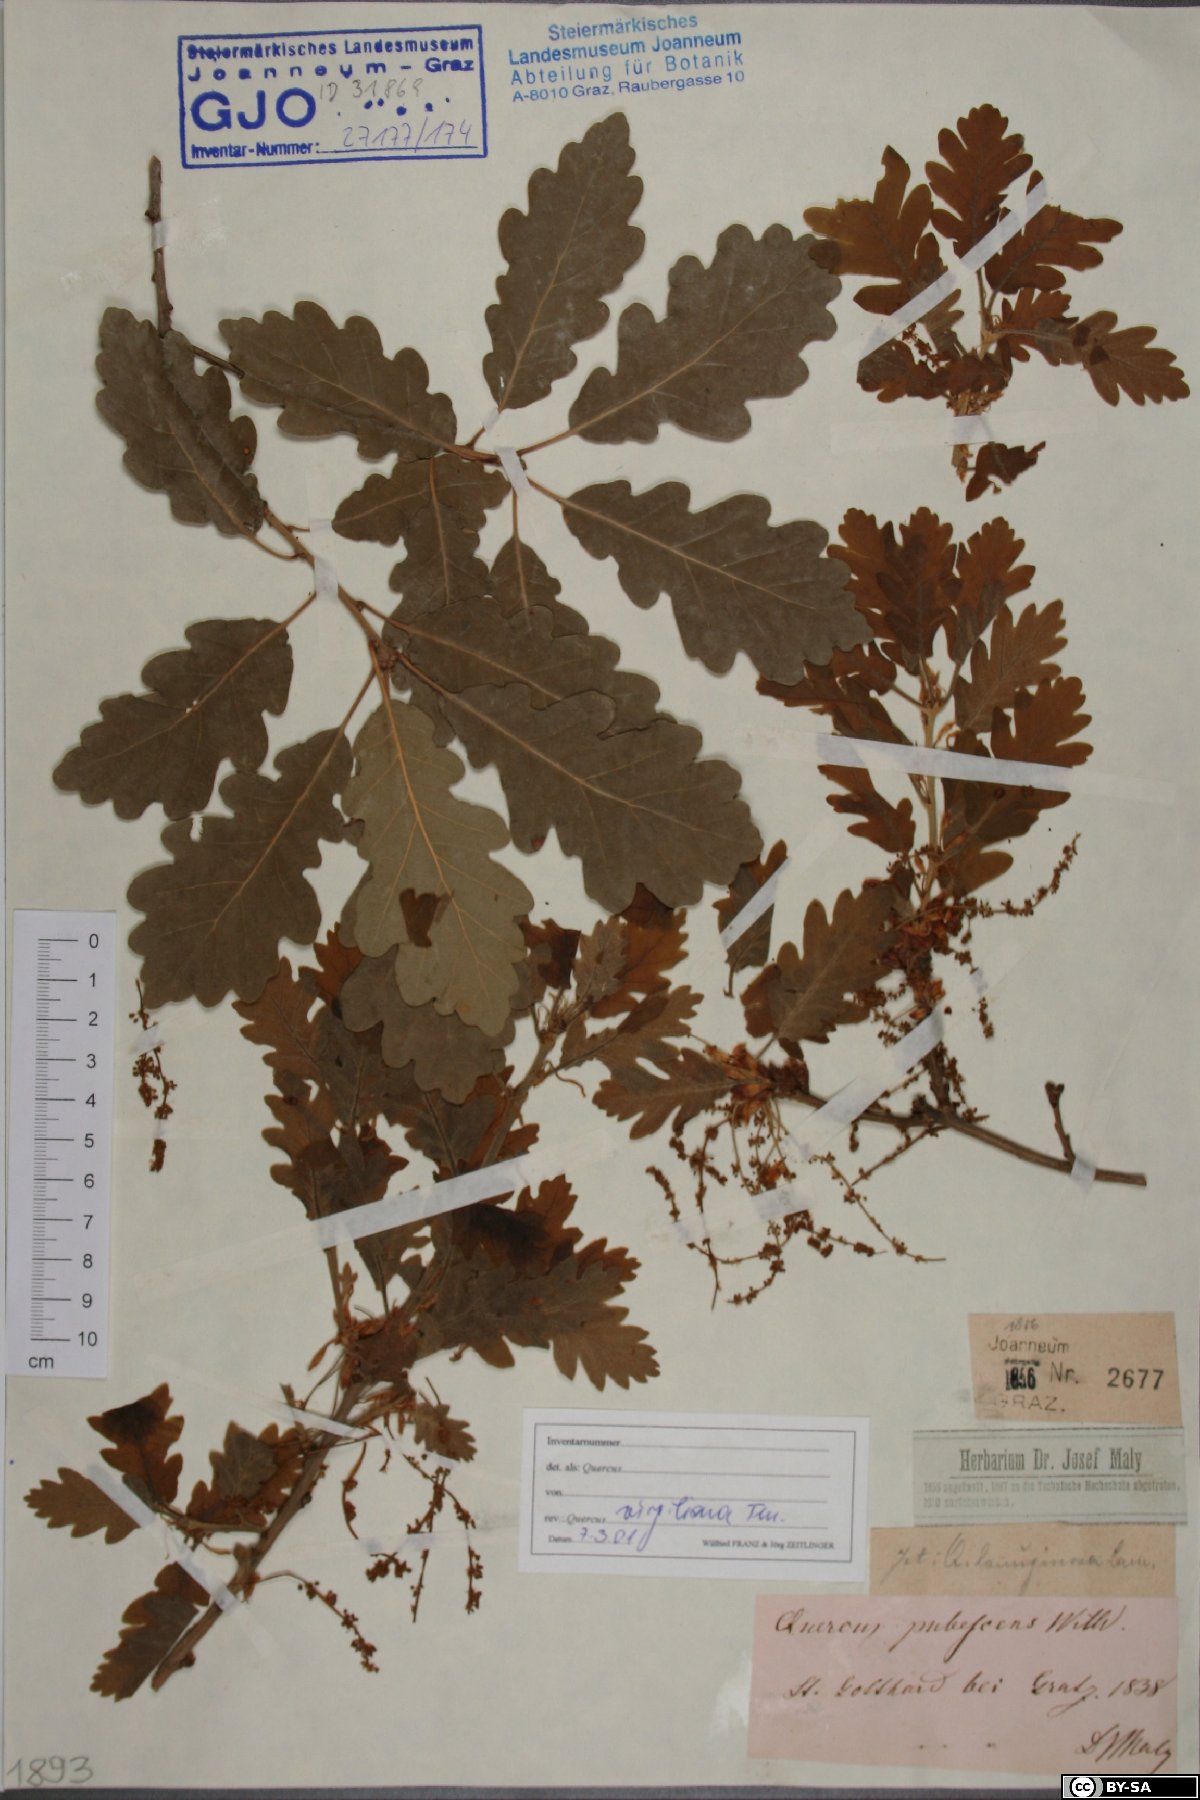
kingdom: Plantae
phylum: Tracheophyta
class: Magnoliopsida
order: Fagales
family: Fagaceae
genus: Quercus
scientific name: Quercus pubescens
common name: Downy oak
